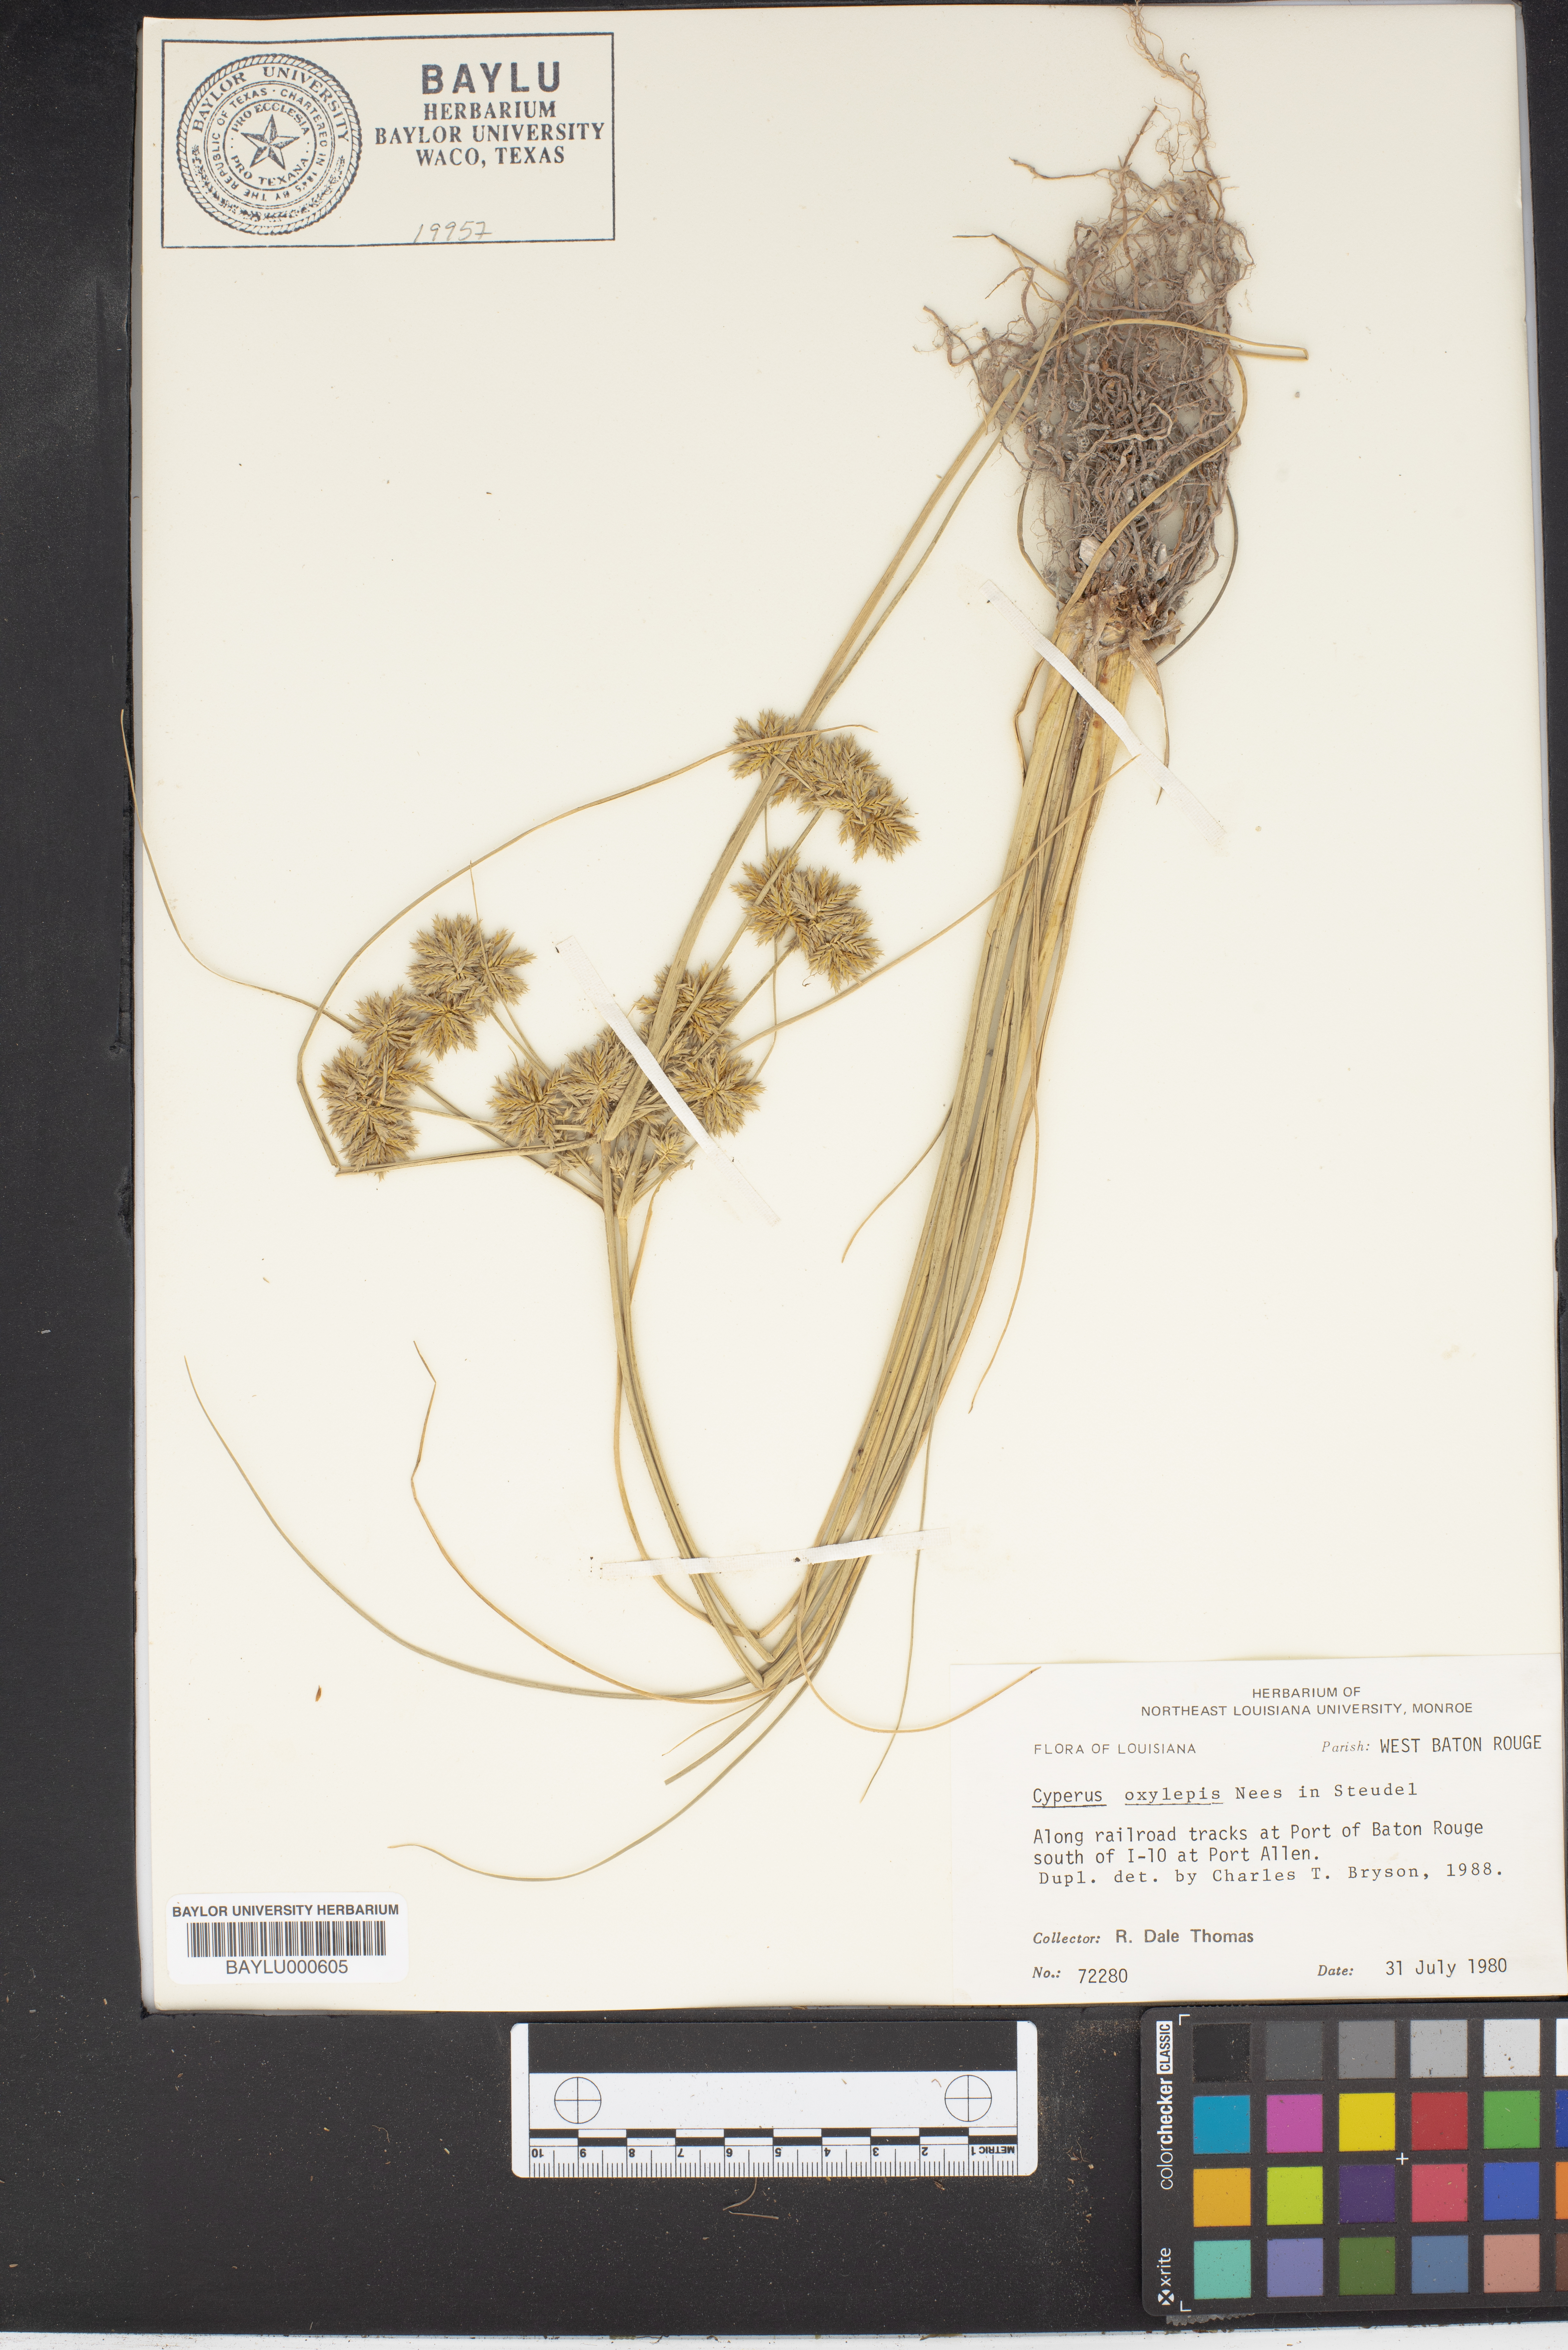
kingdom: Plantae
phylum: Tracheophyta
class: Liliopsida
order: Poales
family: Cyperaceae
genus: Cyperus
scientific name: Cyperus oxylepis
